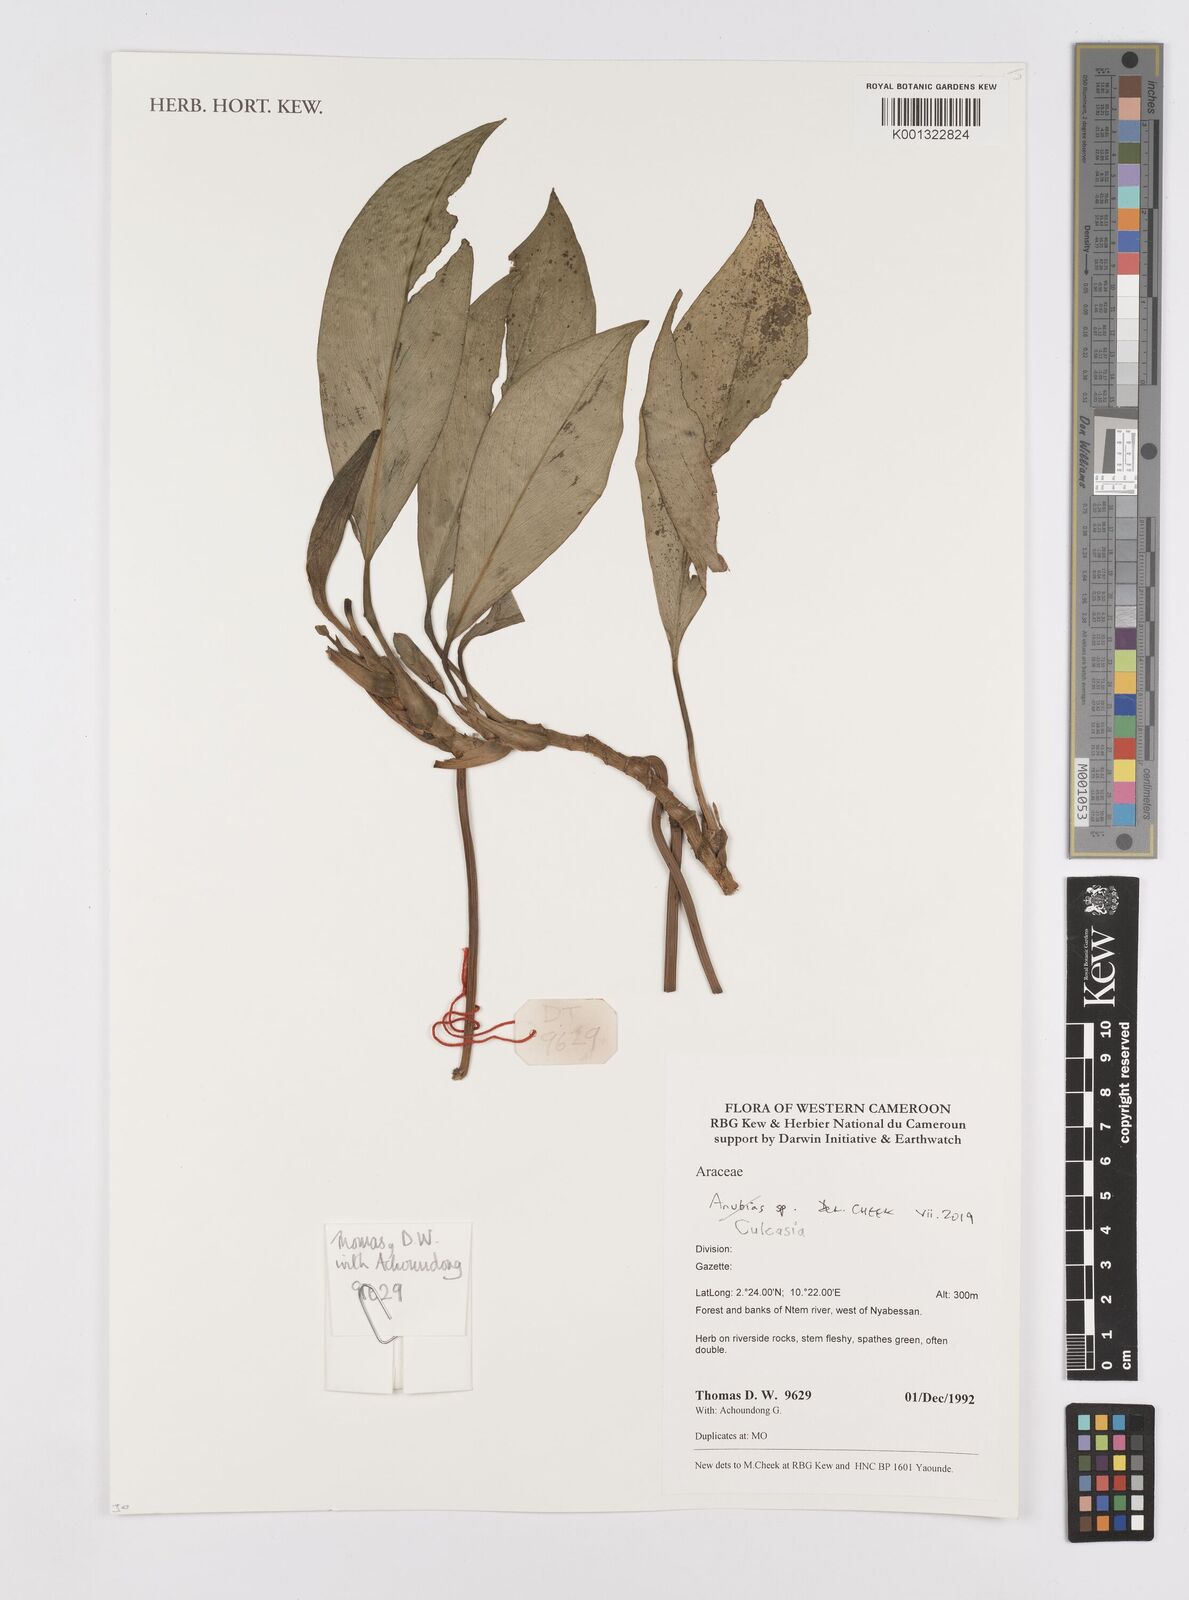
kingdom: Plantae
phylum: Tracheophyta
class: Liliopsida
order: Alismatales
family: Araceae
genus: Culcasia
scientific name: Culcasia
